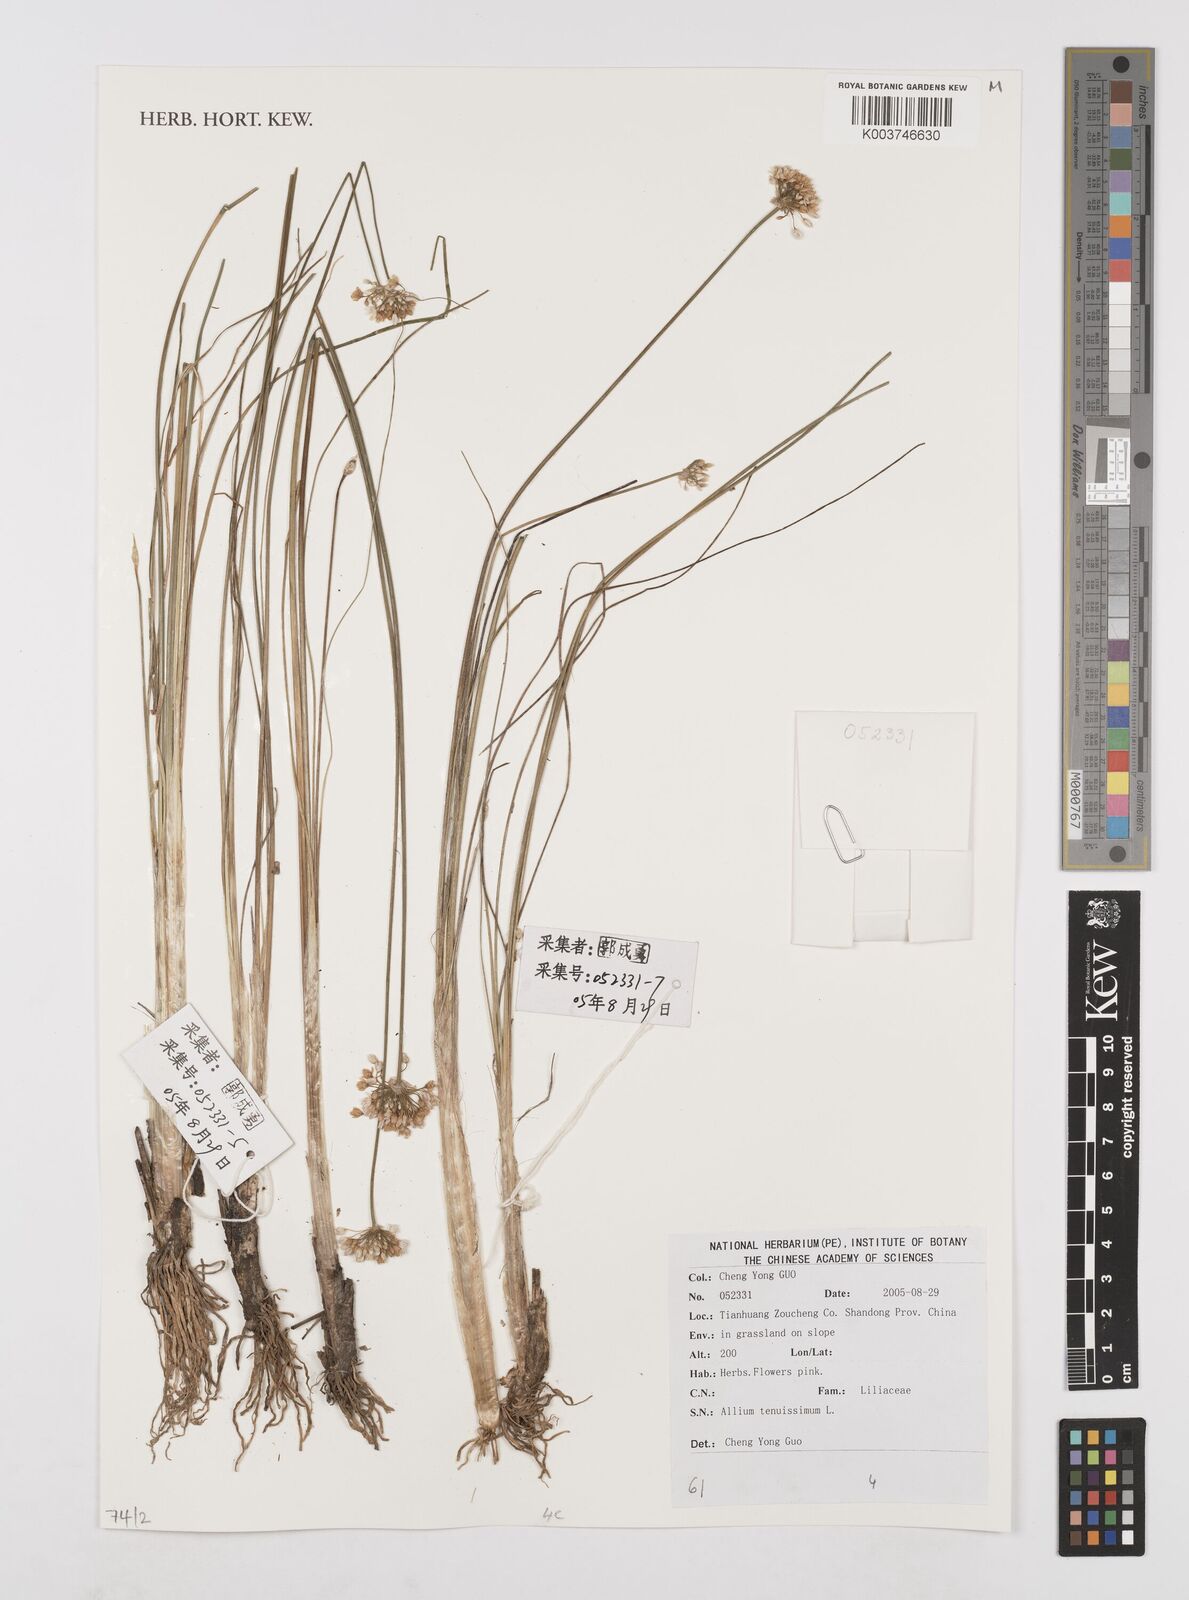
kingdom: Plantae
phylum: Tracheophyta
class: Liliopsida
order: Asparagales
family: Amaryllidaceae
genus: Allium
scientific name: Allium tenuissimum
